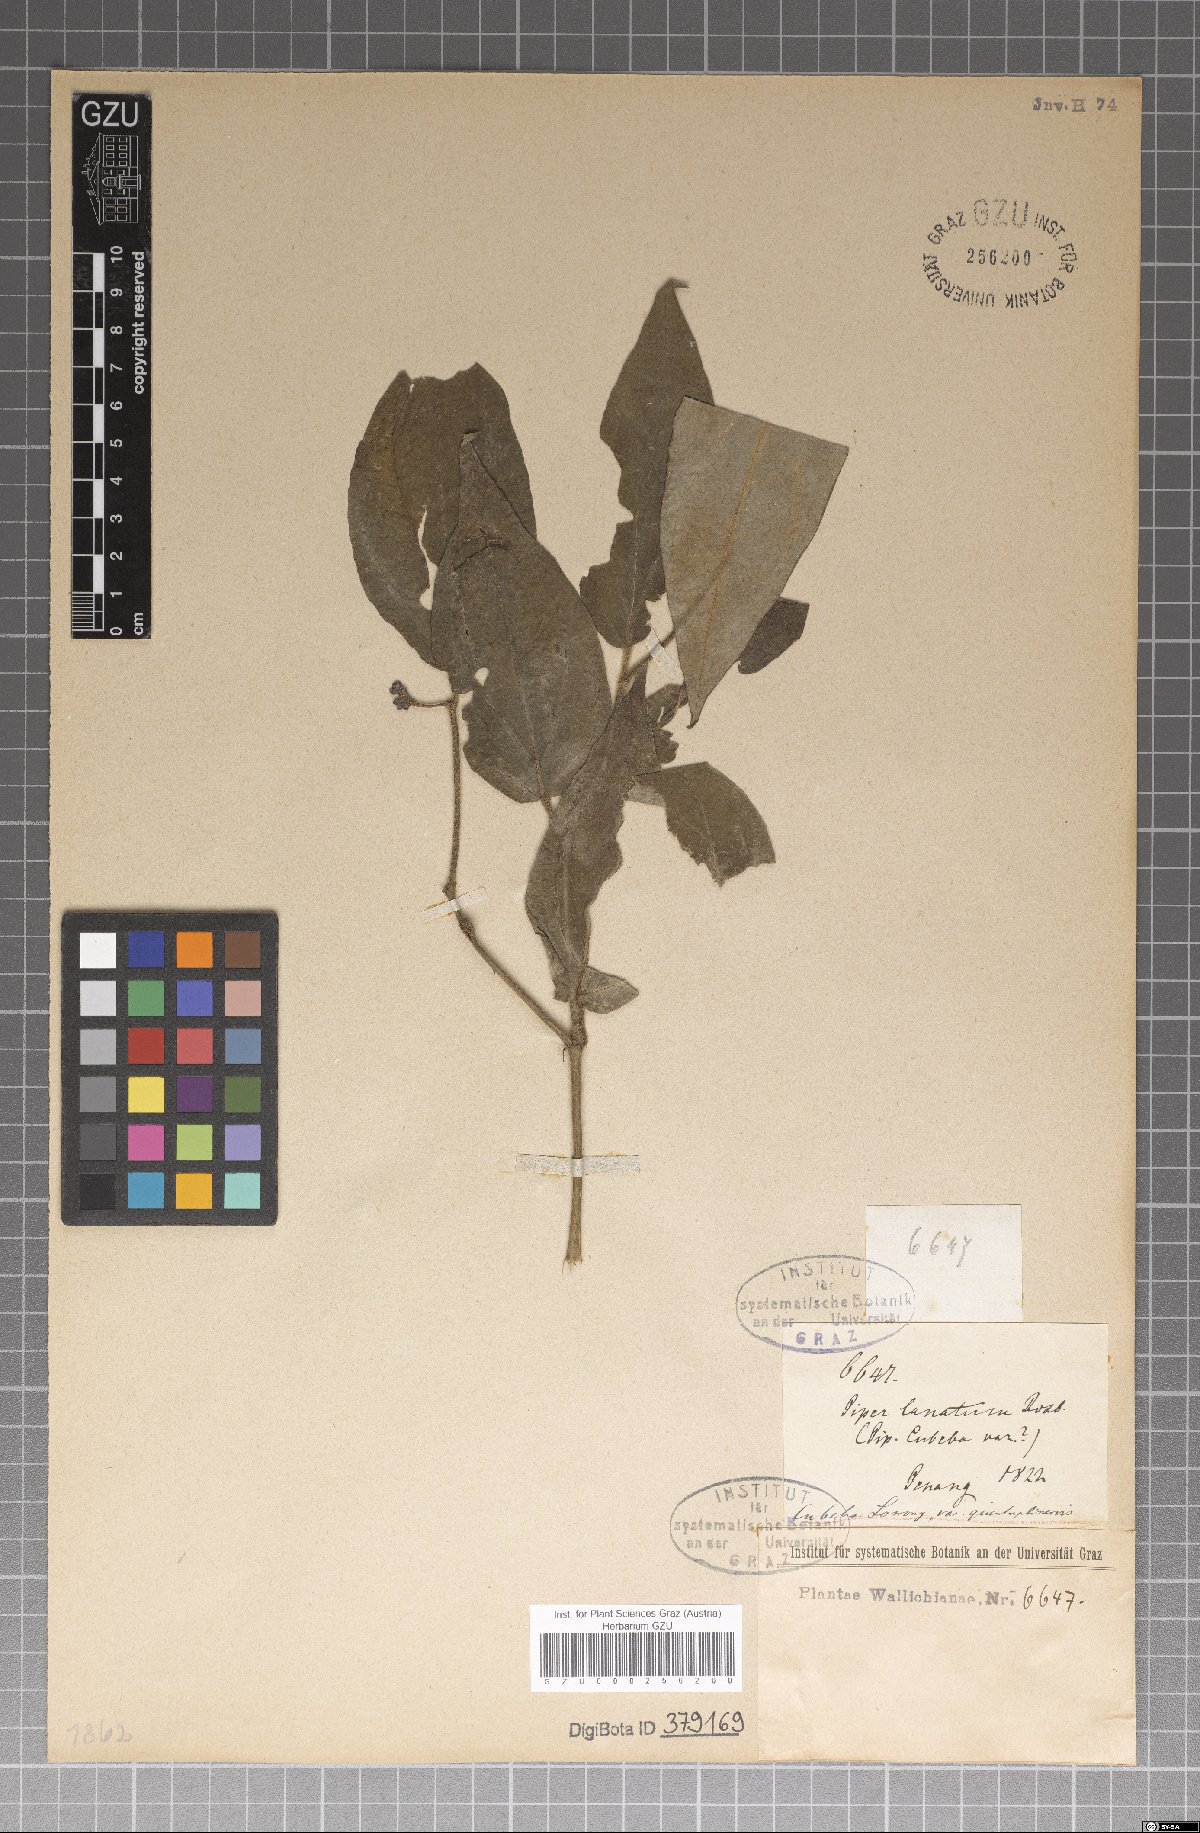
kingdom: Plantae
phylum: Tracheophyta
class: Magnoliopsida
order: Piperales
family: Piperaceae
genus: Piper
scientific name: Piper lanatum
